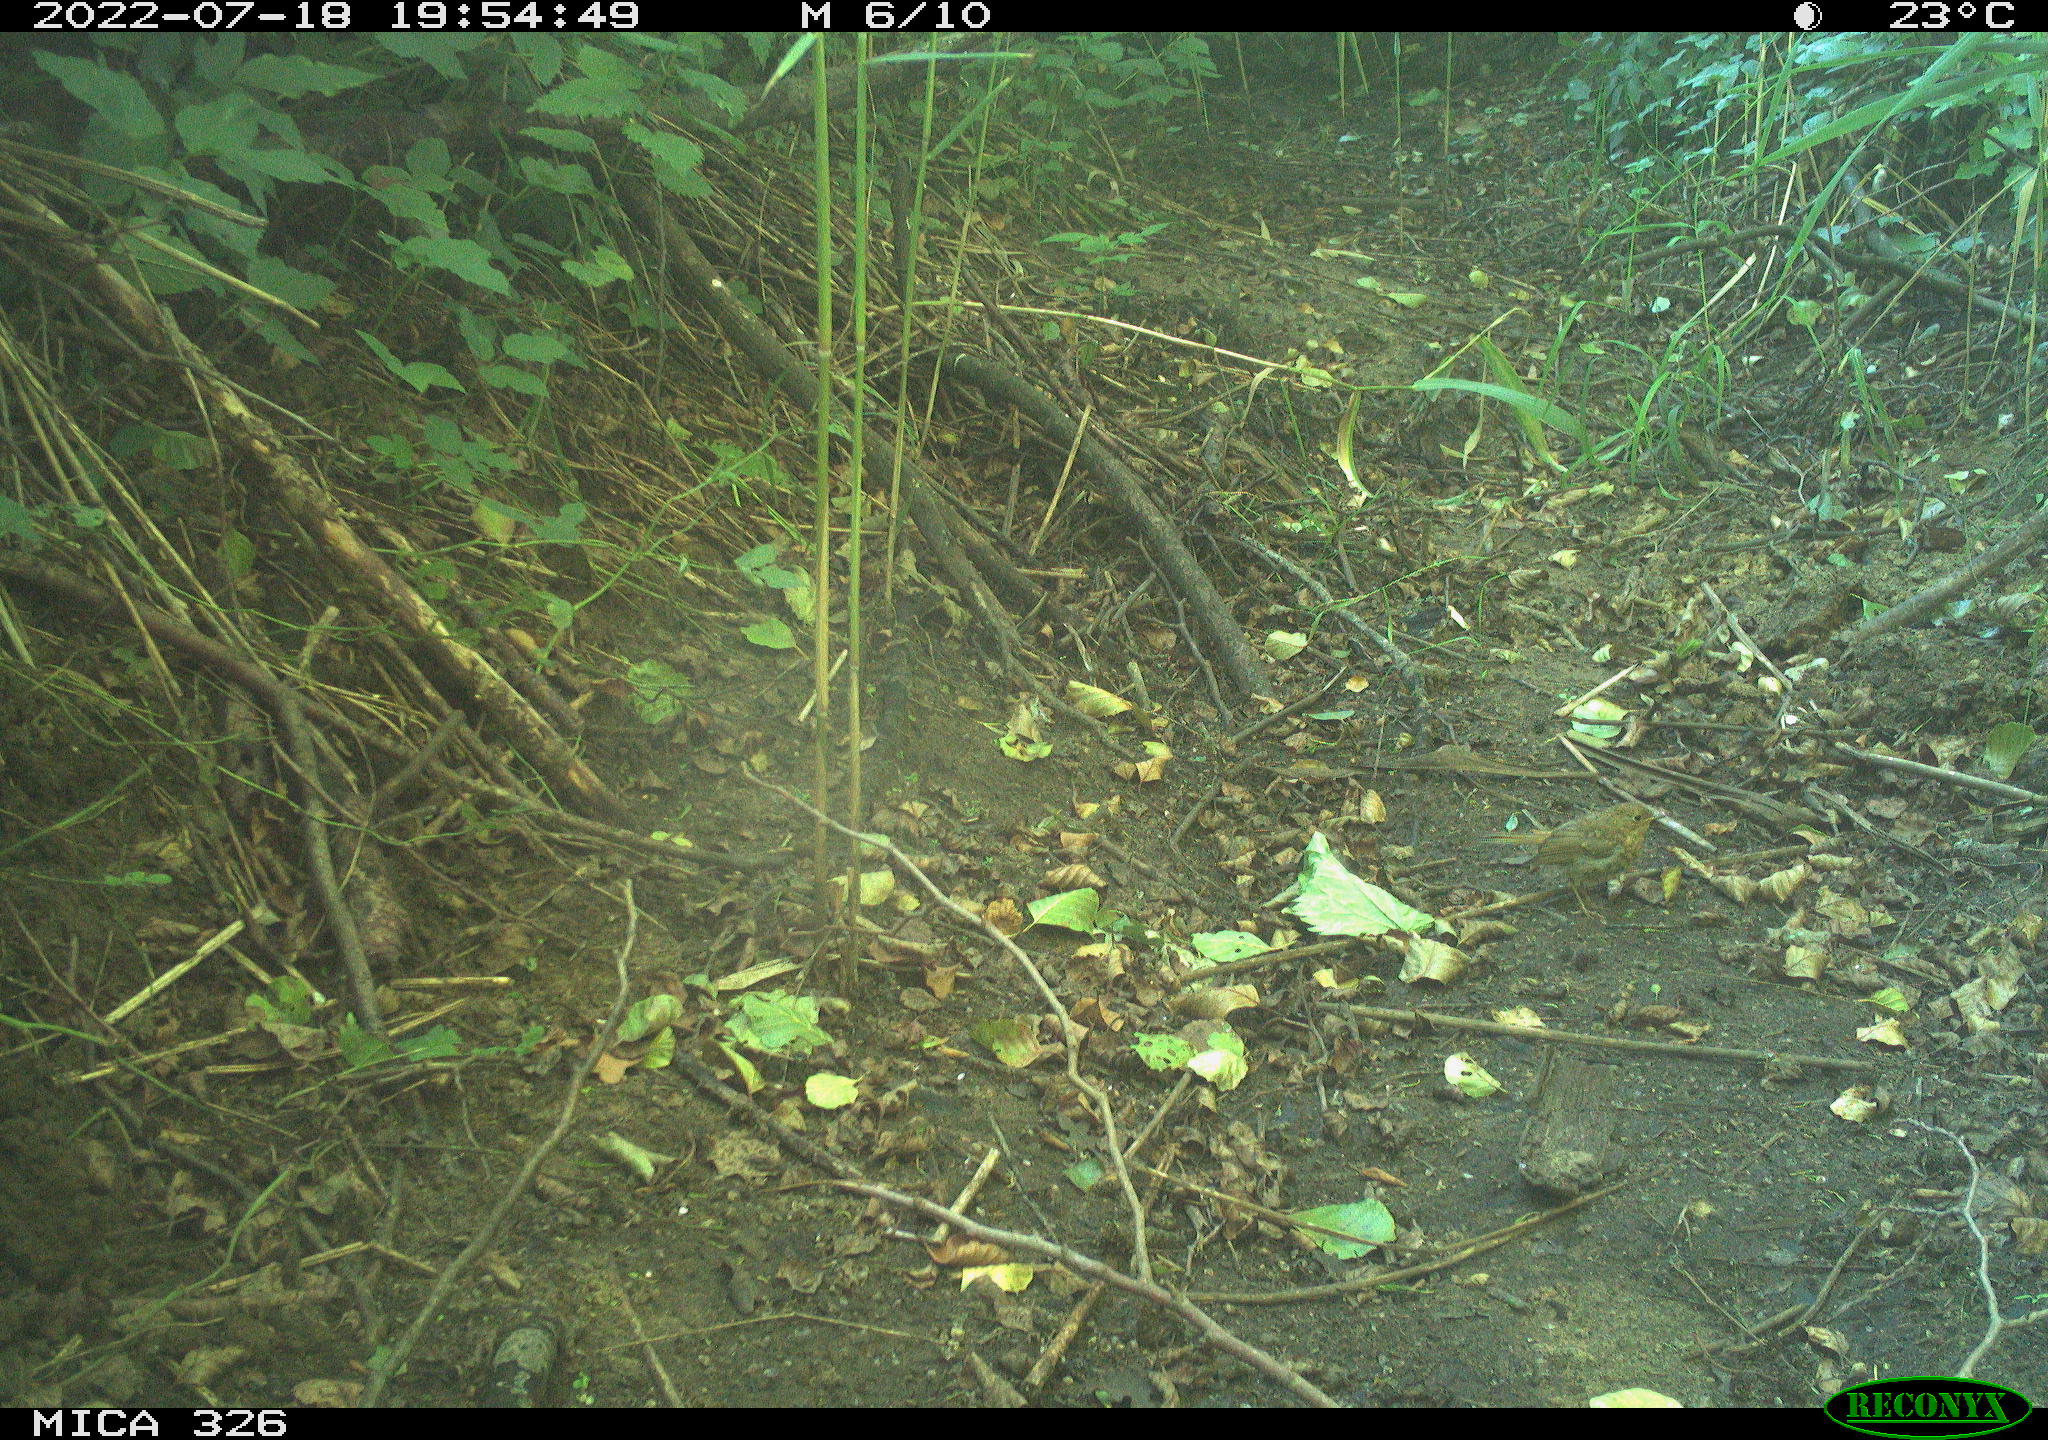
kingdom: Animalia
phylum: Chordata
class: Aves
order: Passeriformes
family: Muscicapidae
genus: Erithacus
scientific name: Erithacus rubecula
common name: European robin
